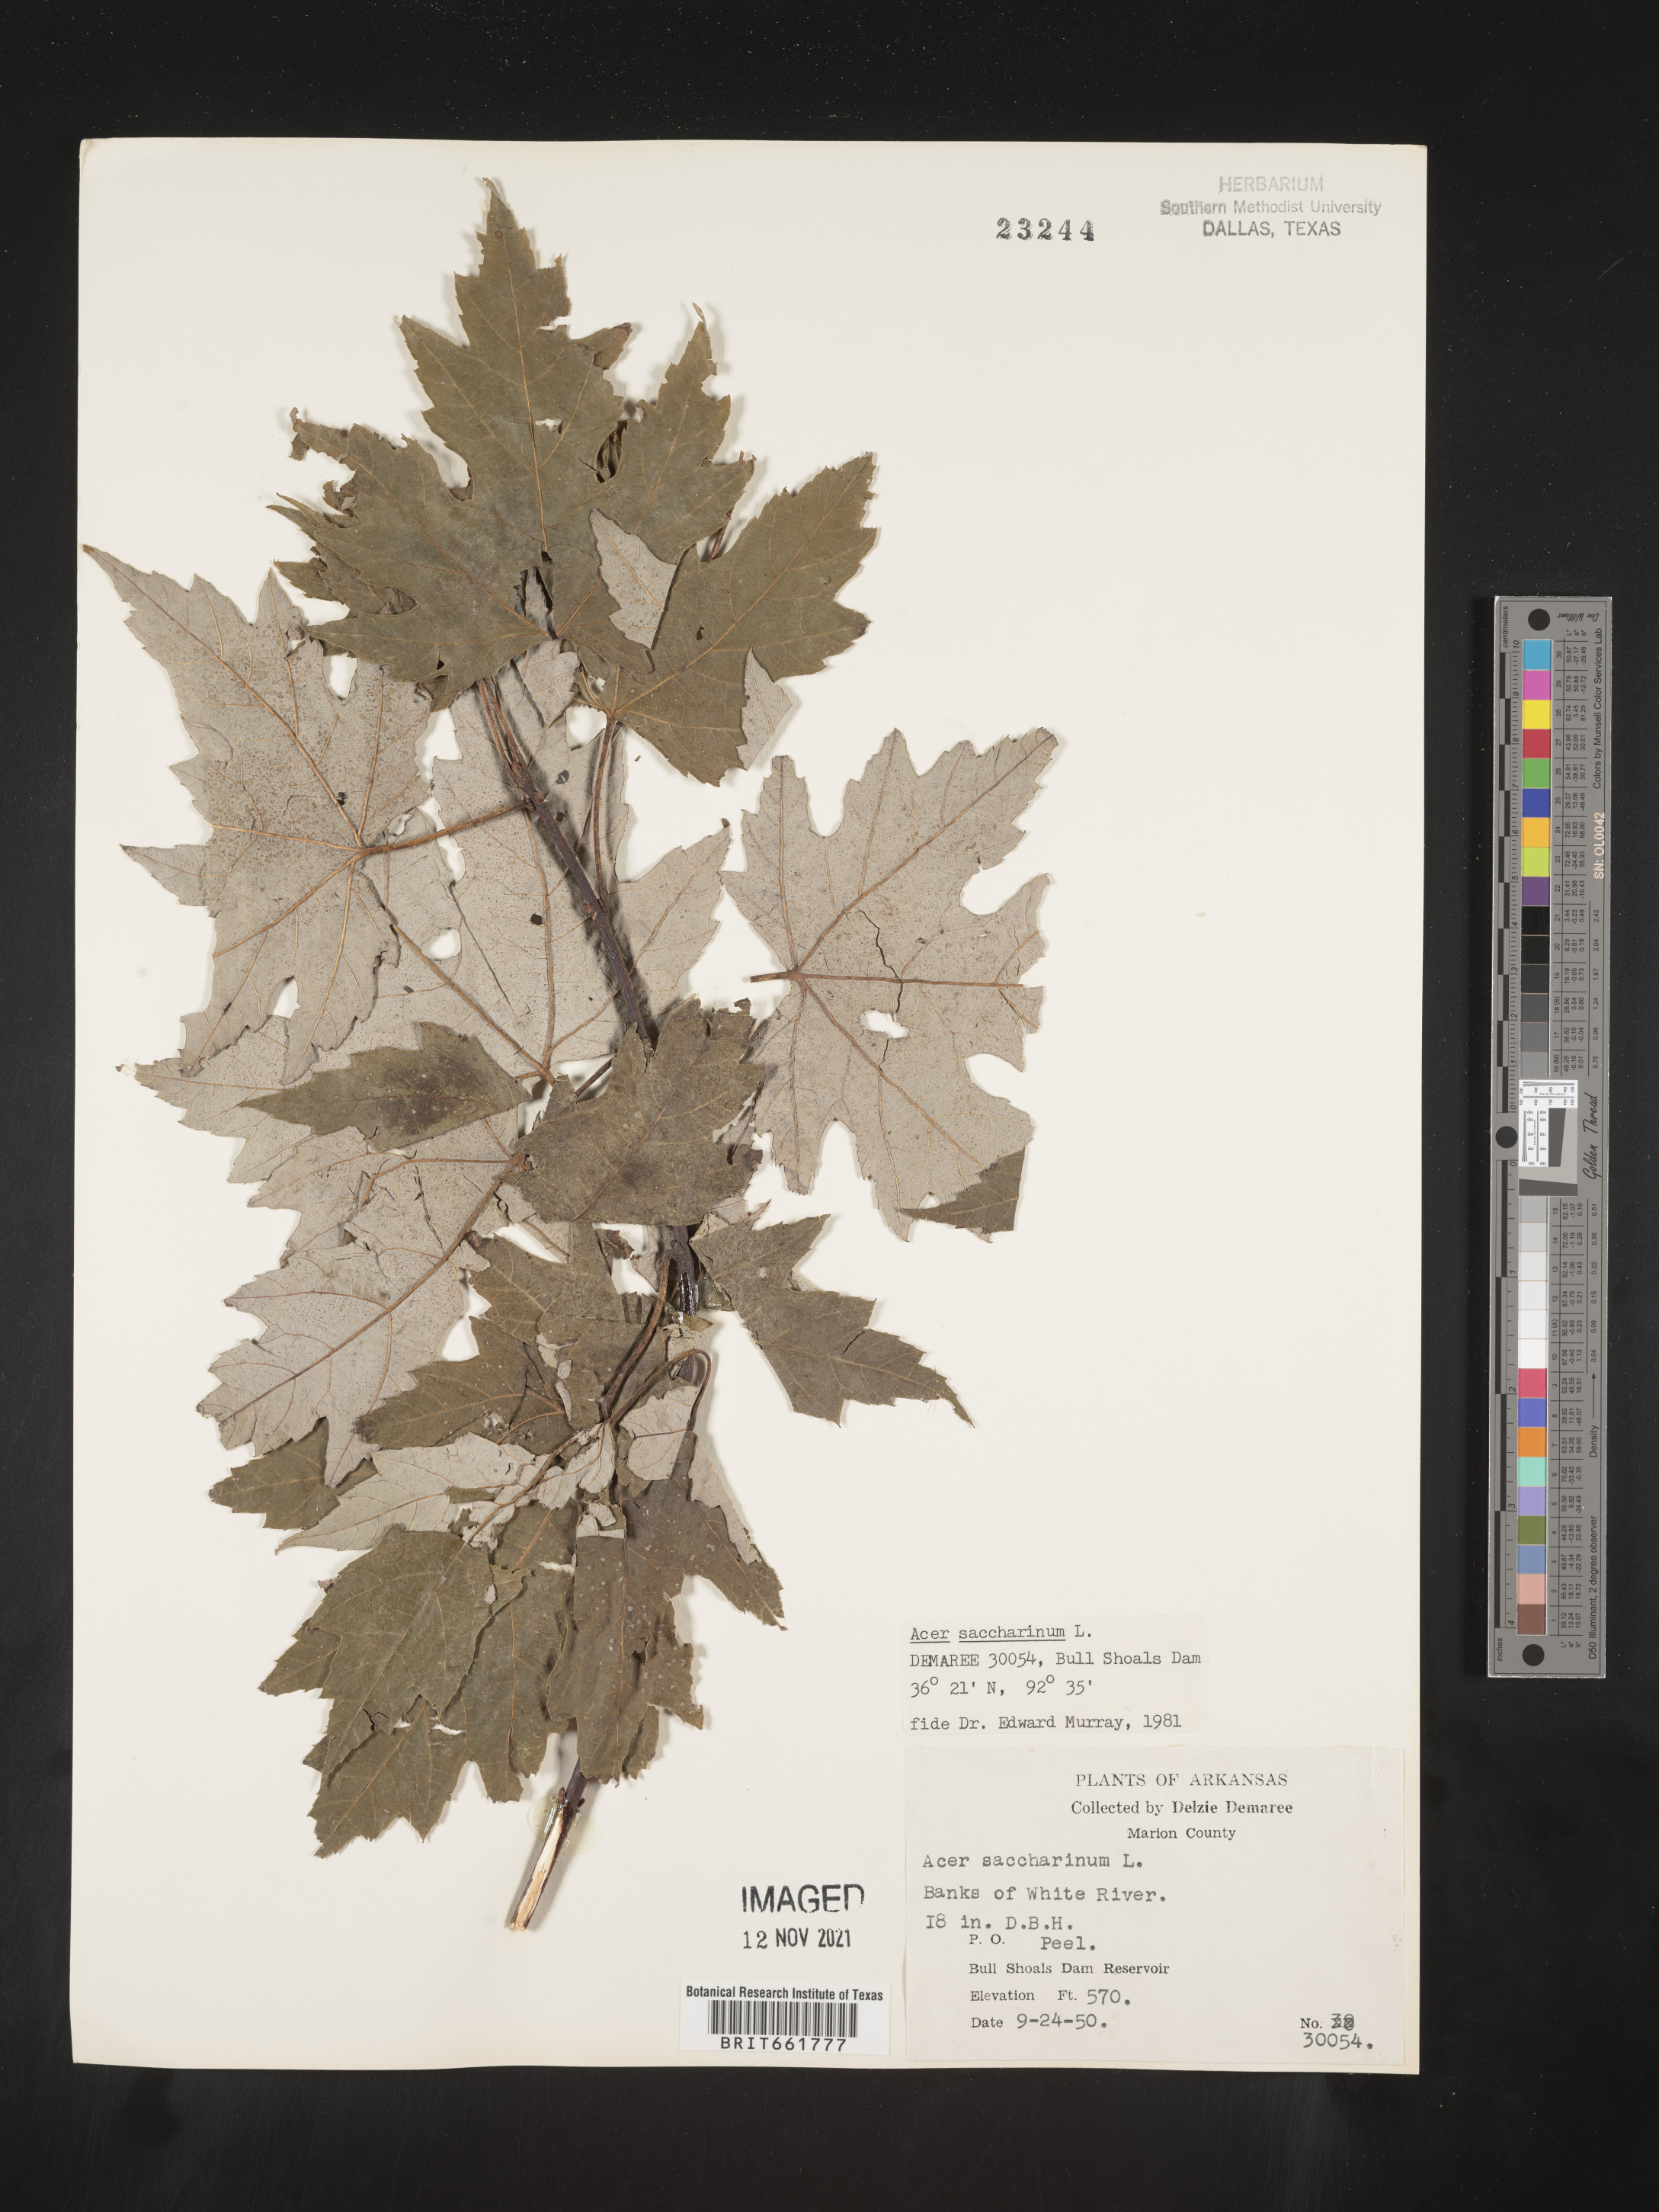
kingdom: Plantae
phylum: Tracheophyta
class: Magnoliopsida
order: Sapindales
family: Sapindaceae
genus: Acer
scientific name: Acer saccharinum
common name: Silver maple
